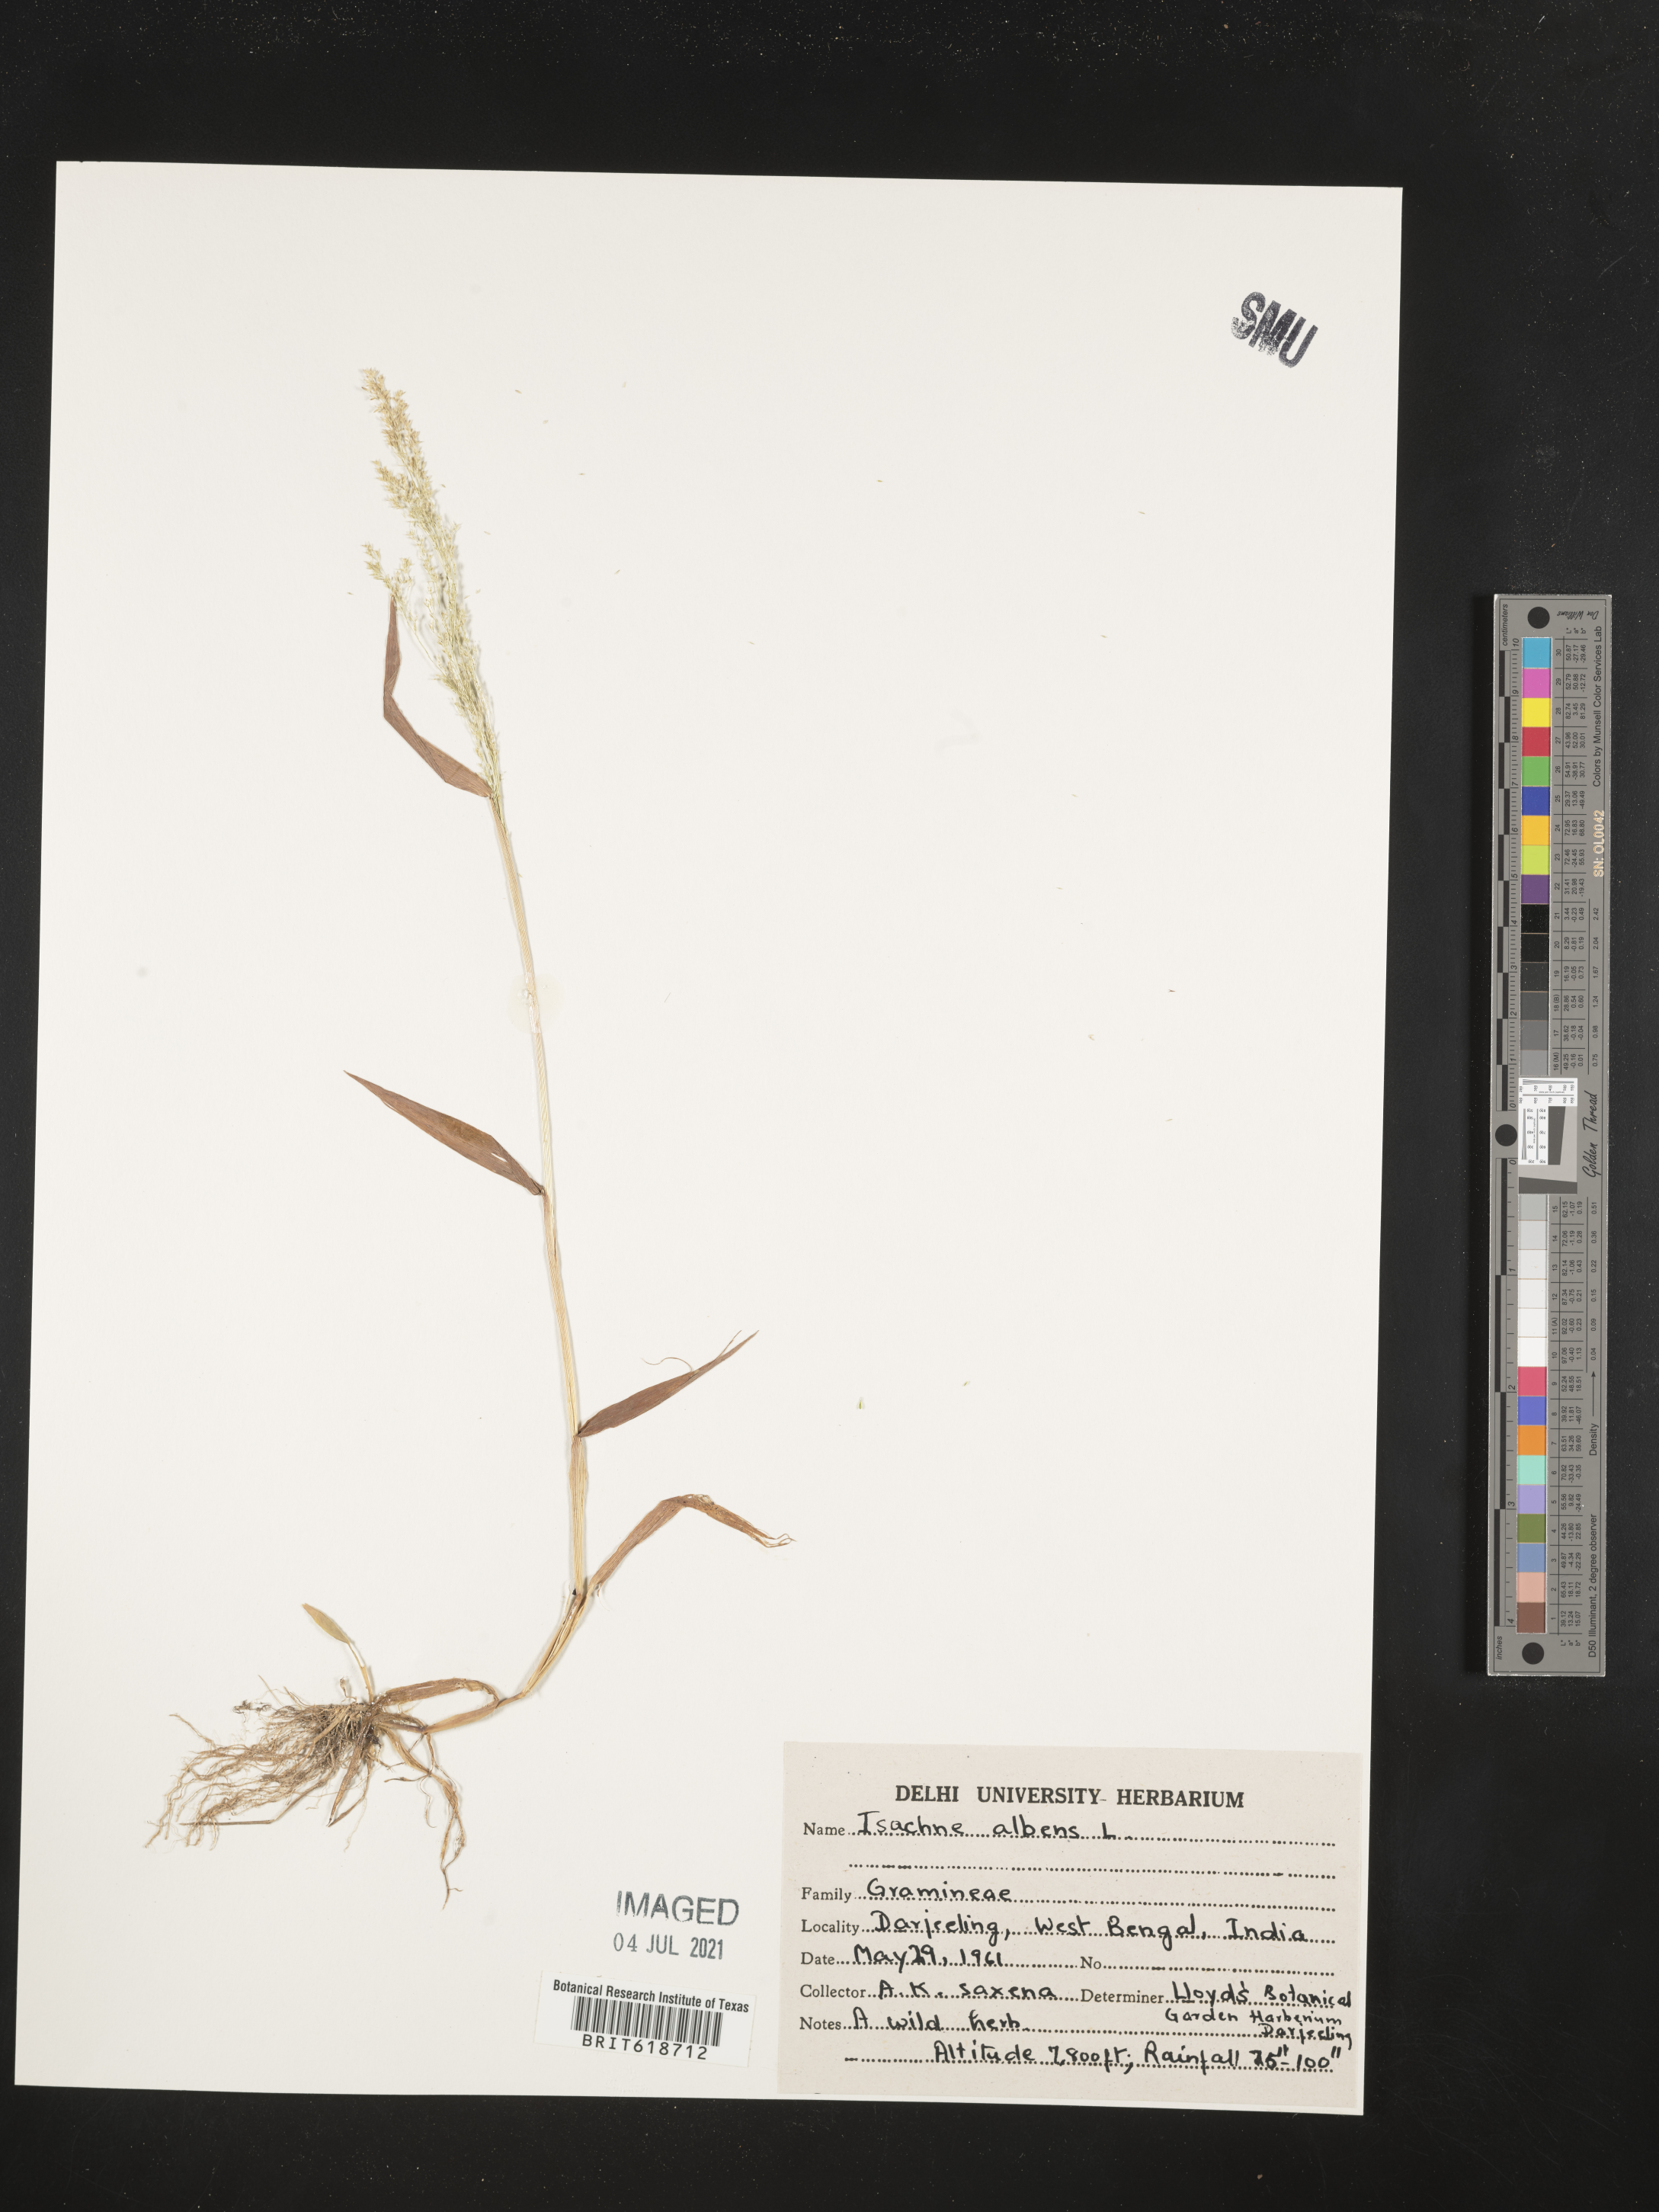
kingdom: Plantae
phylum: Tracheophyta
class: Liliopsida
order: Poales
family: Poaceae
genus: Isachne
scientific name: Isachne albens
